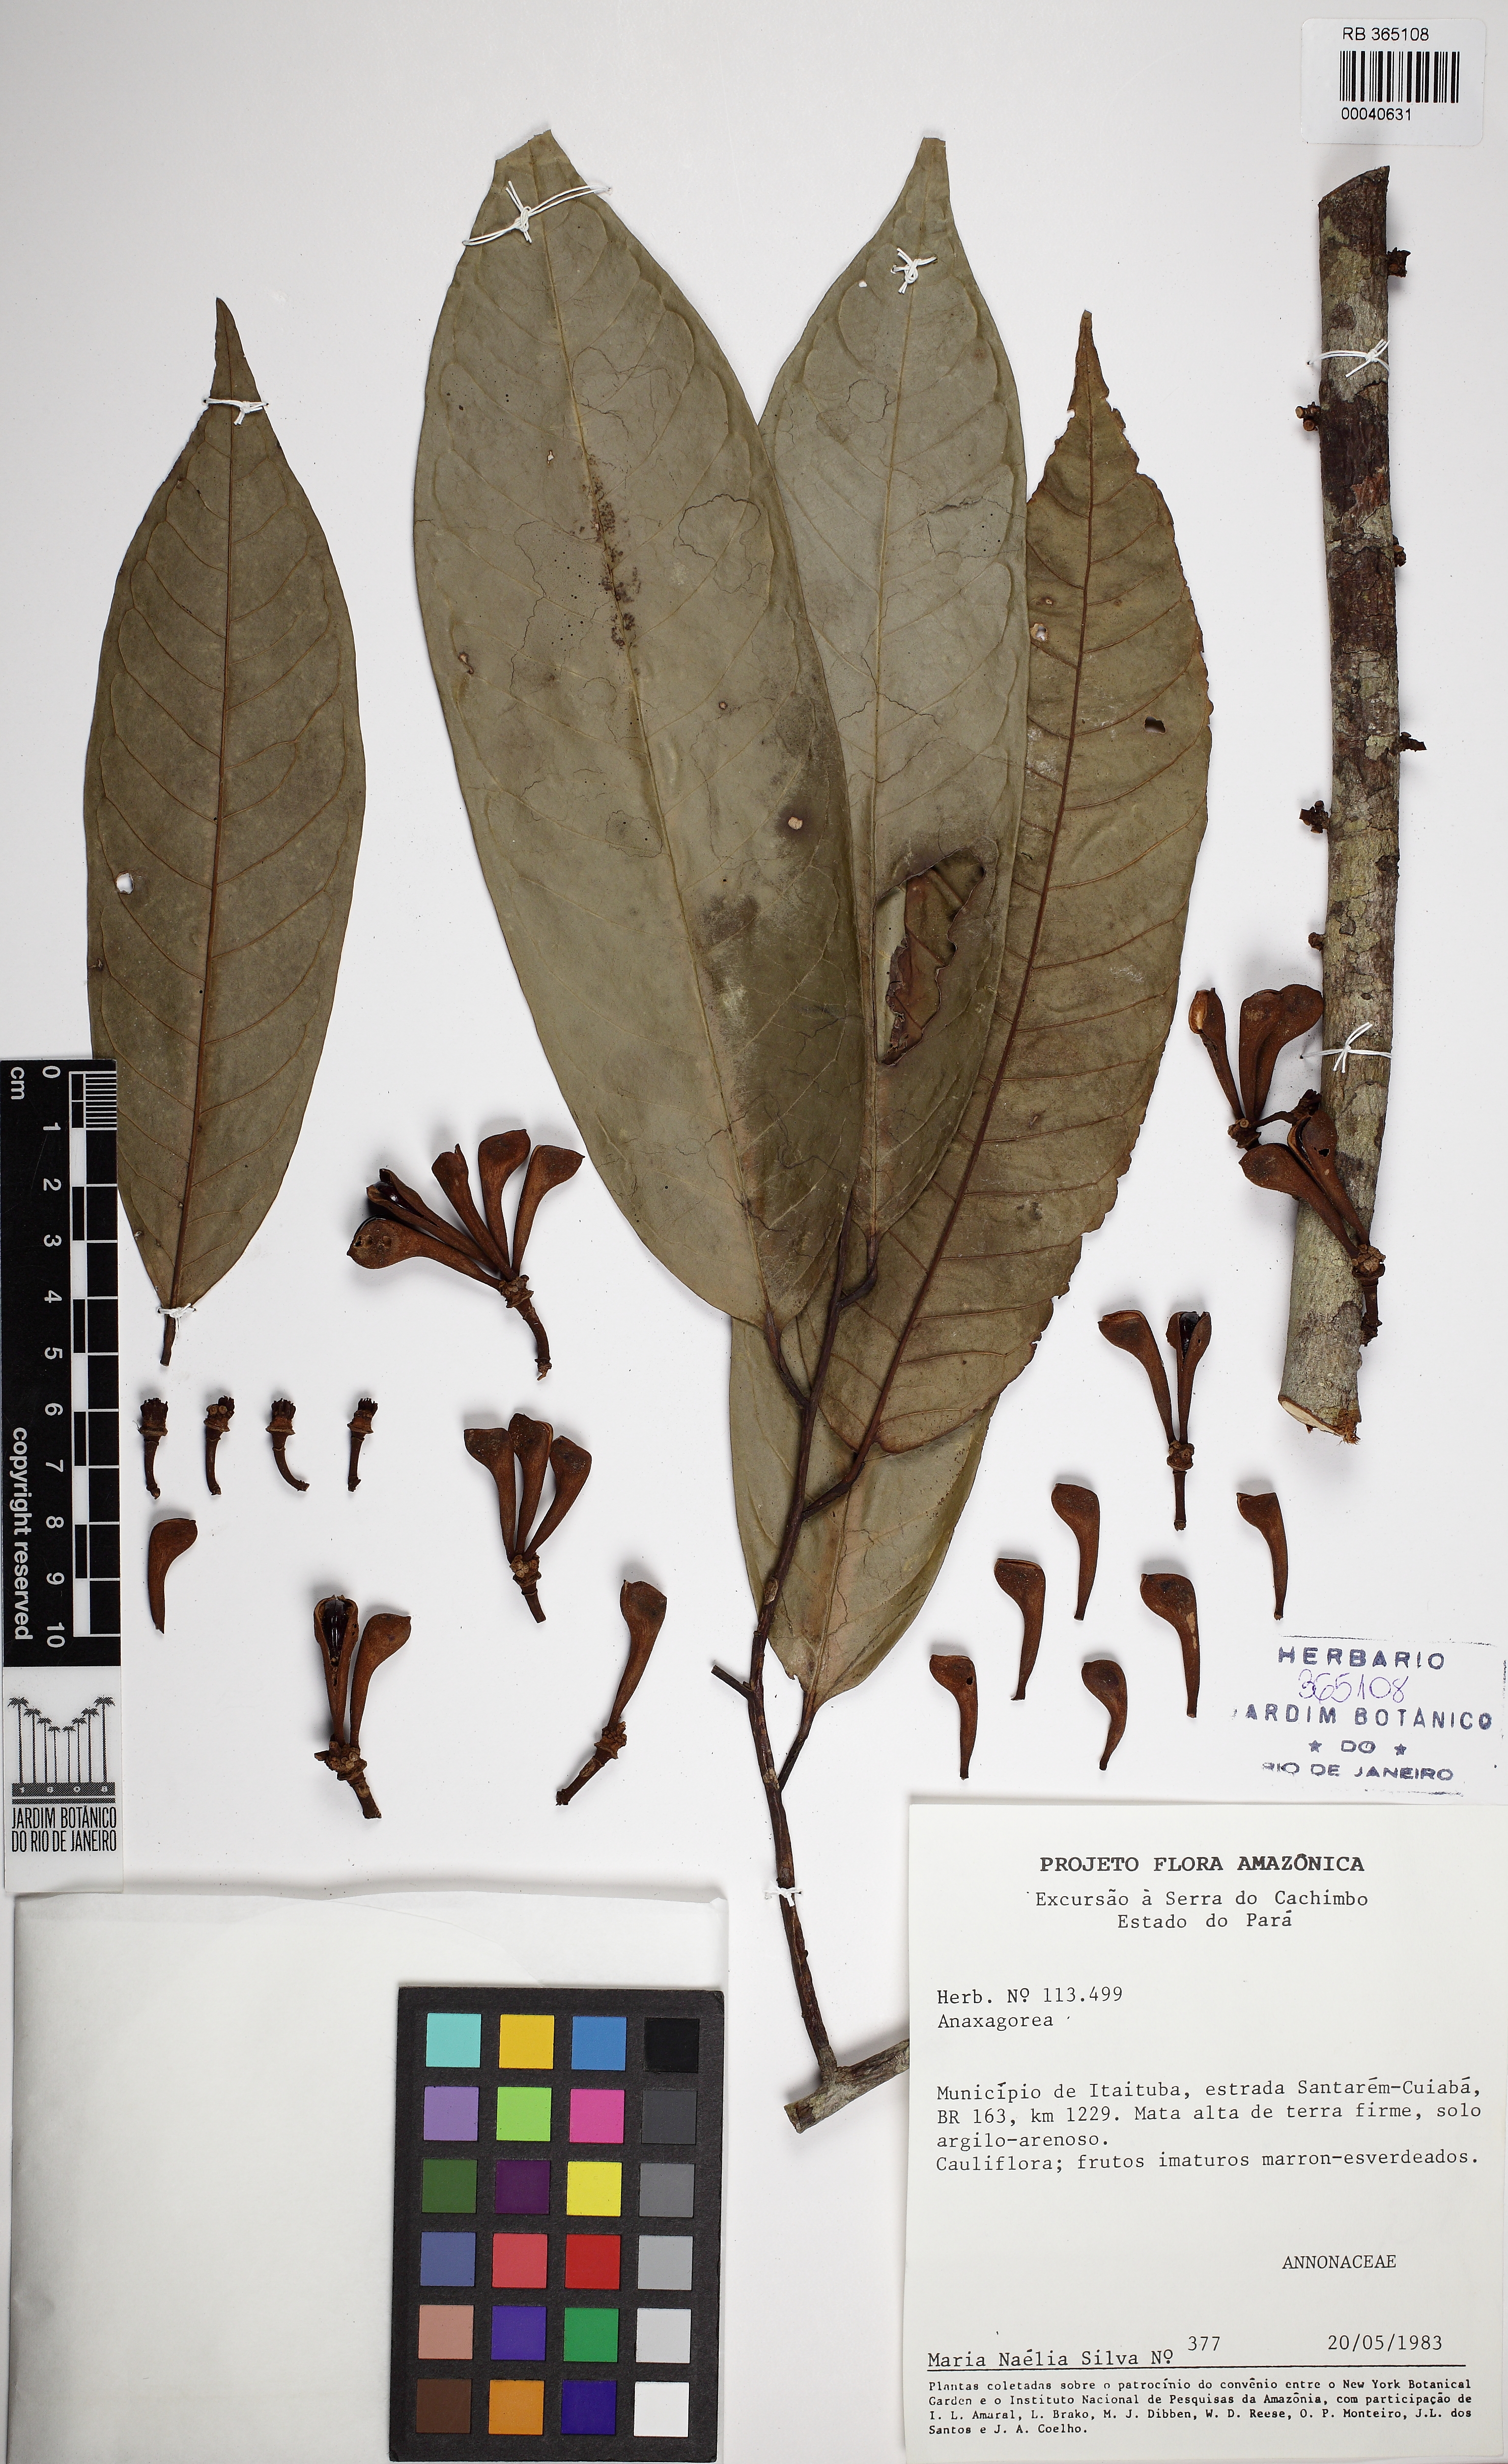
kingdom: Plantae
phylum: Tracheophyta
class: Magnoliopsida
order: Magnoliales
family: Annonaceae
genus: Anaxagorea
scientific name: Anaxagorea phaeocarpa
